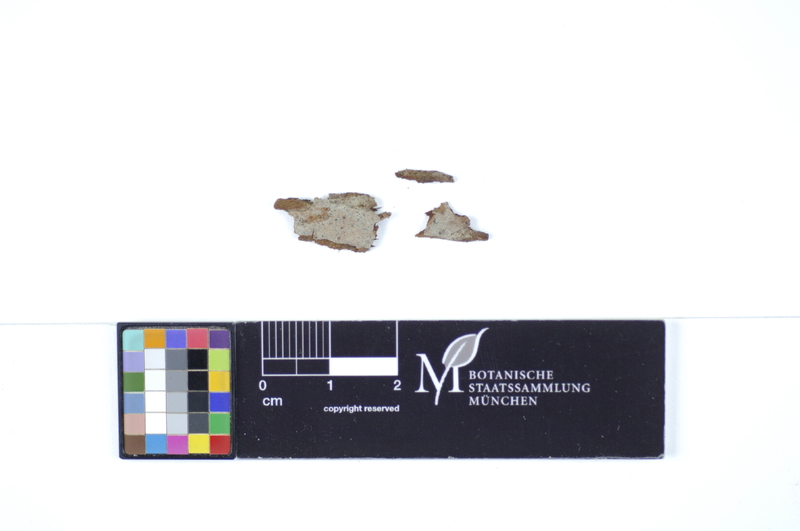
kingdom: Fungi
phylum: Basidiomycota
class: Agaricomycetes
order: Polyporales
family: Hyphodermataceae
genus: Hyphoderma
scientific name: Hyphoderma cremeoalbum
